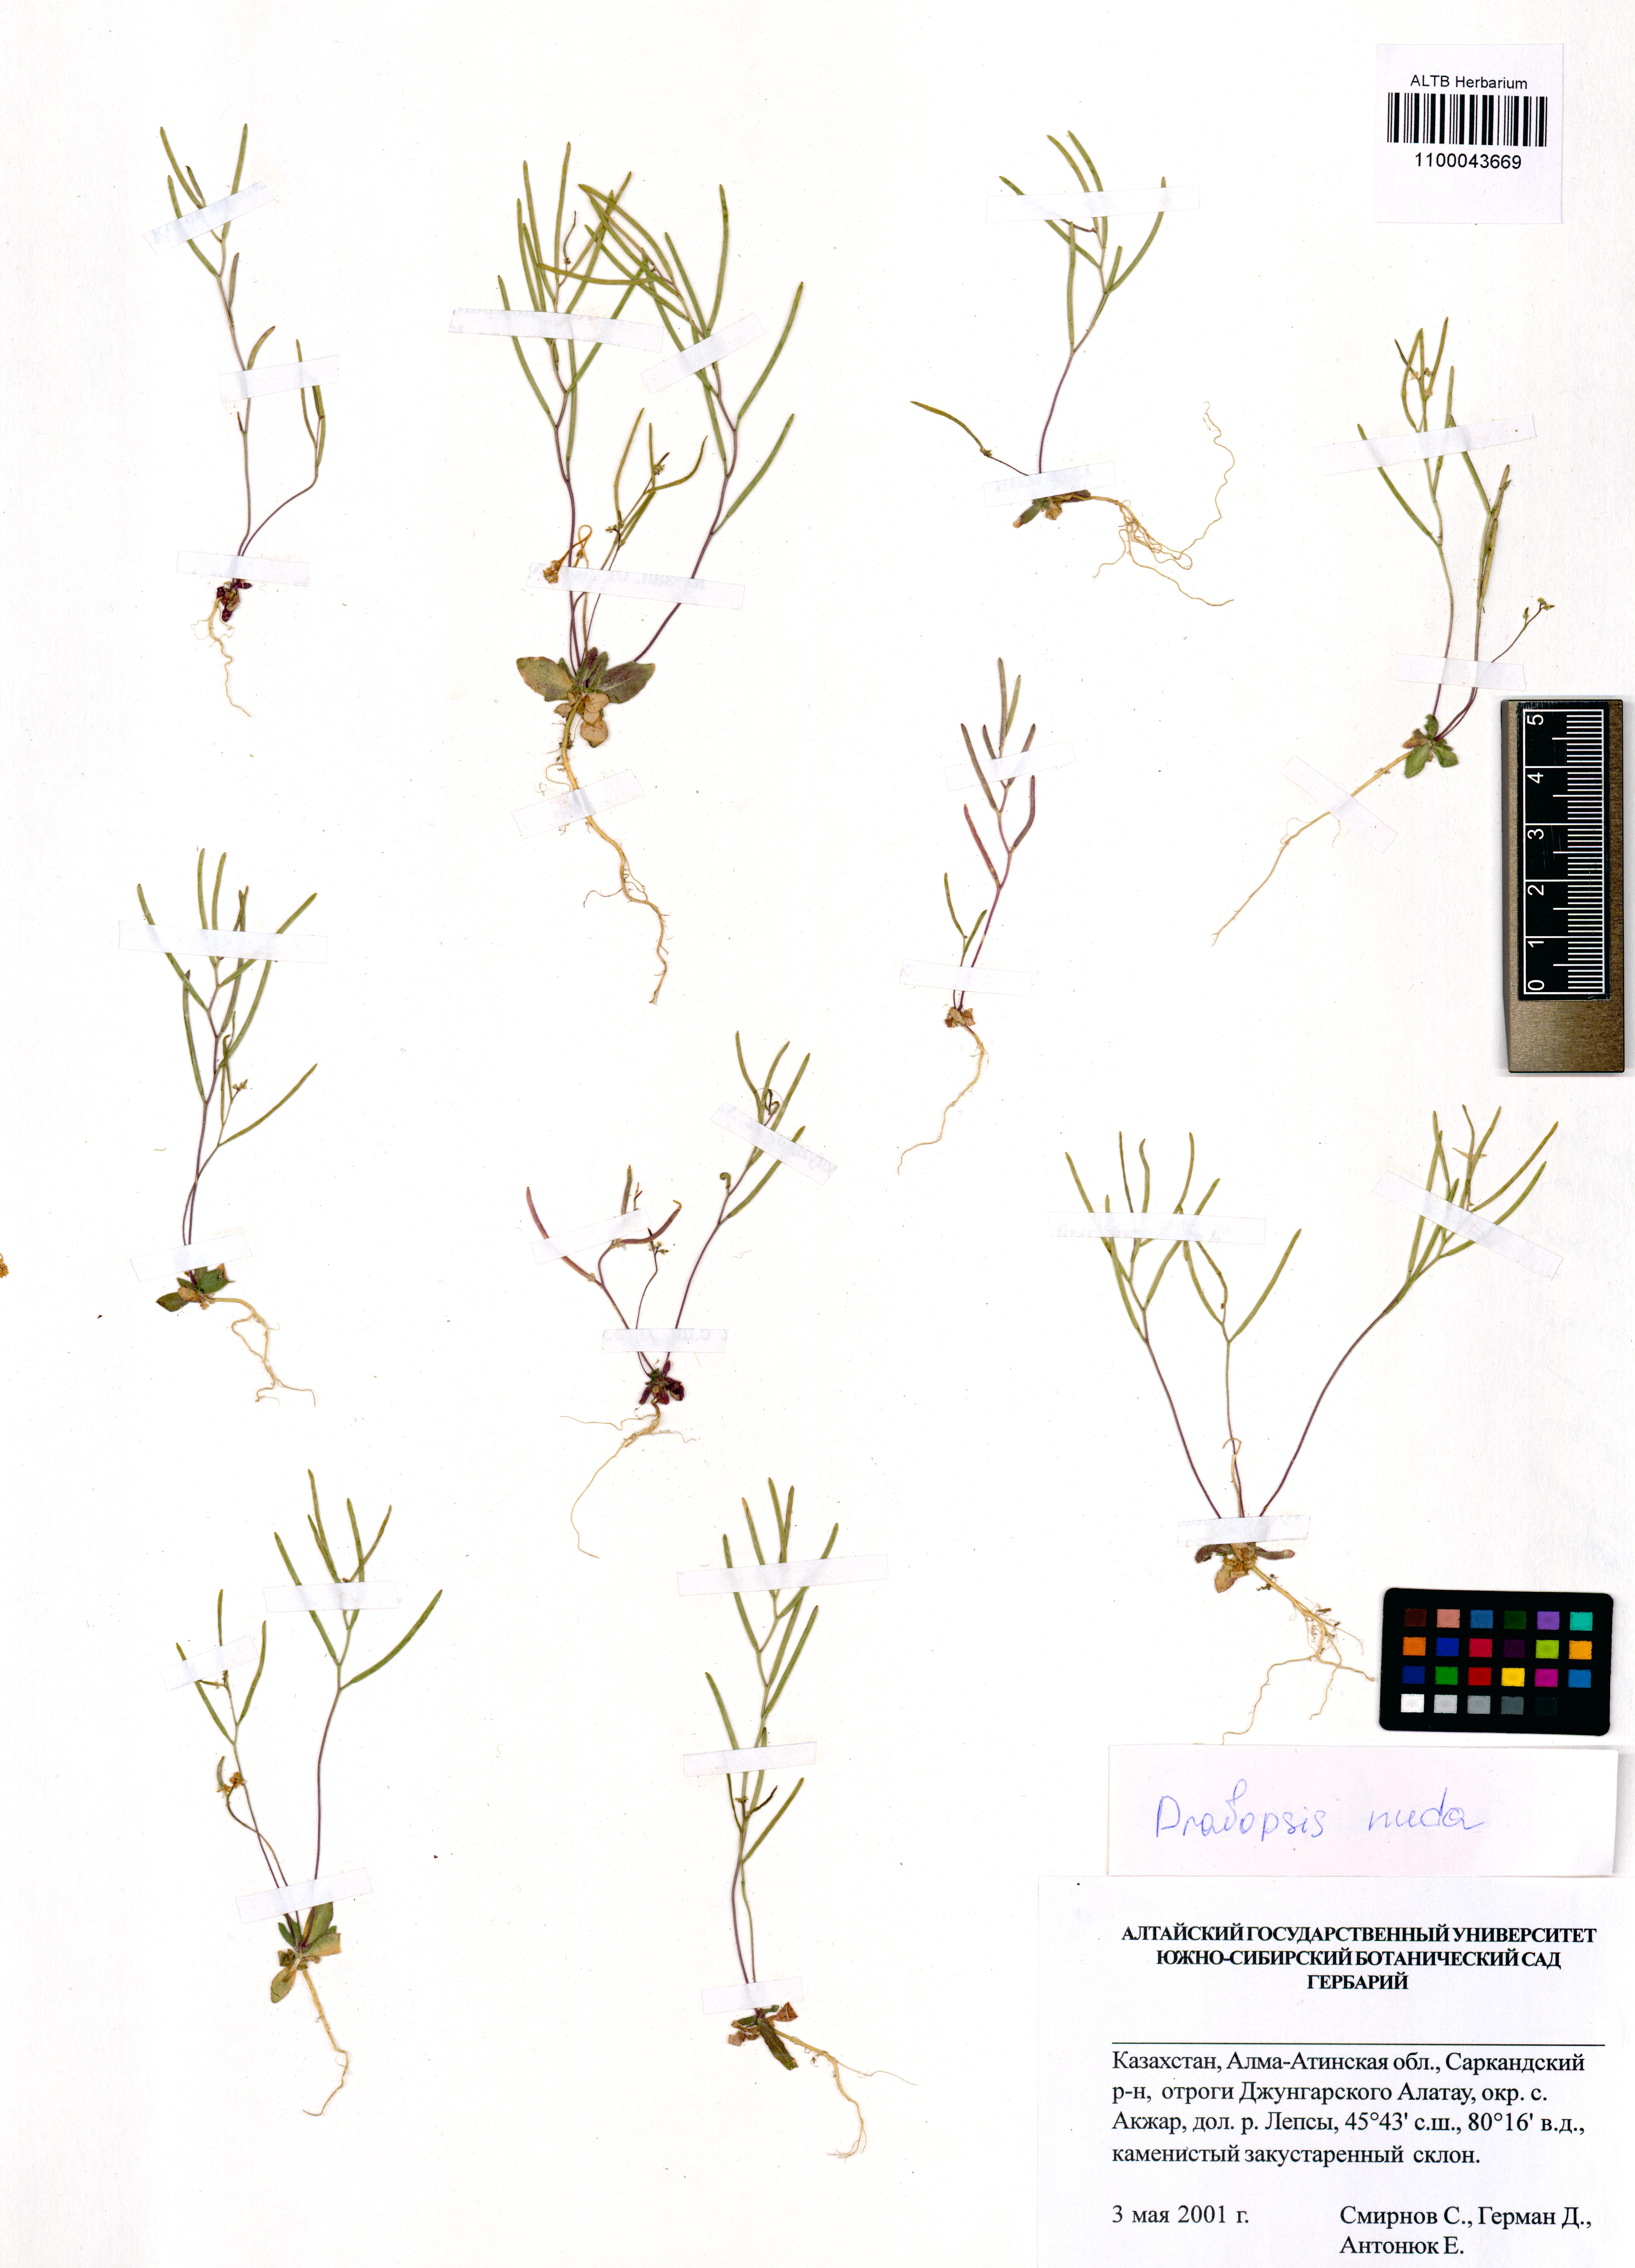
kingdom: Plantae
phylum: Tracheophyta
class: Magnoliopsida
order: Brassicales
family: Brassicaceae
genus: Draba
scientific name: Draba nuda
